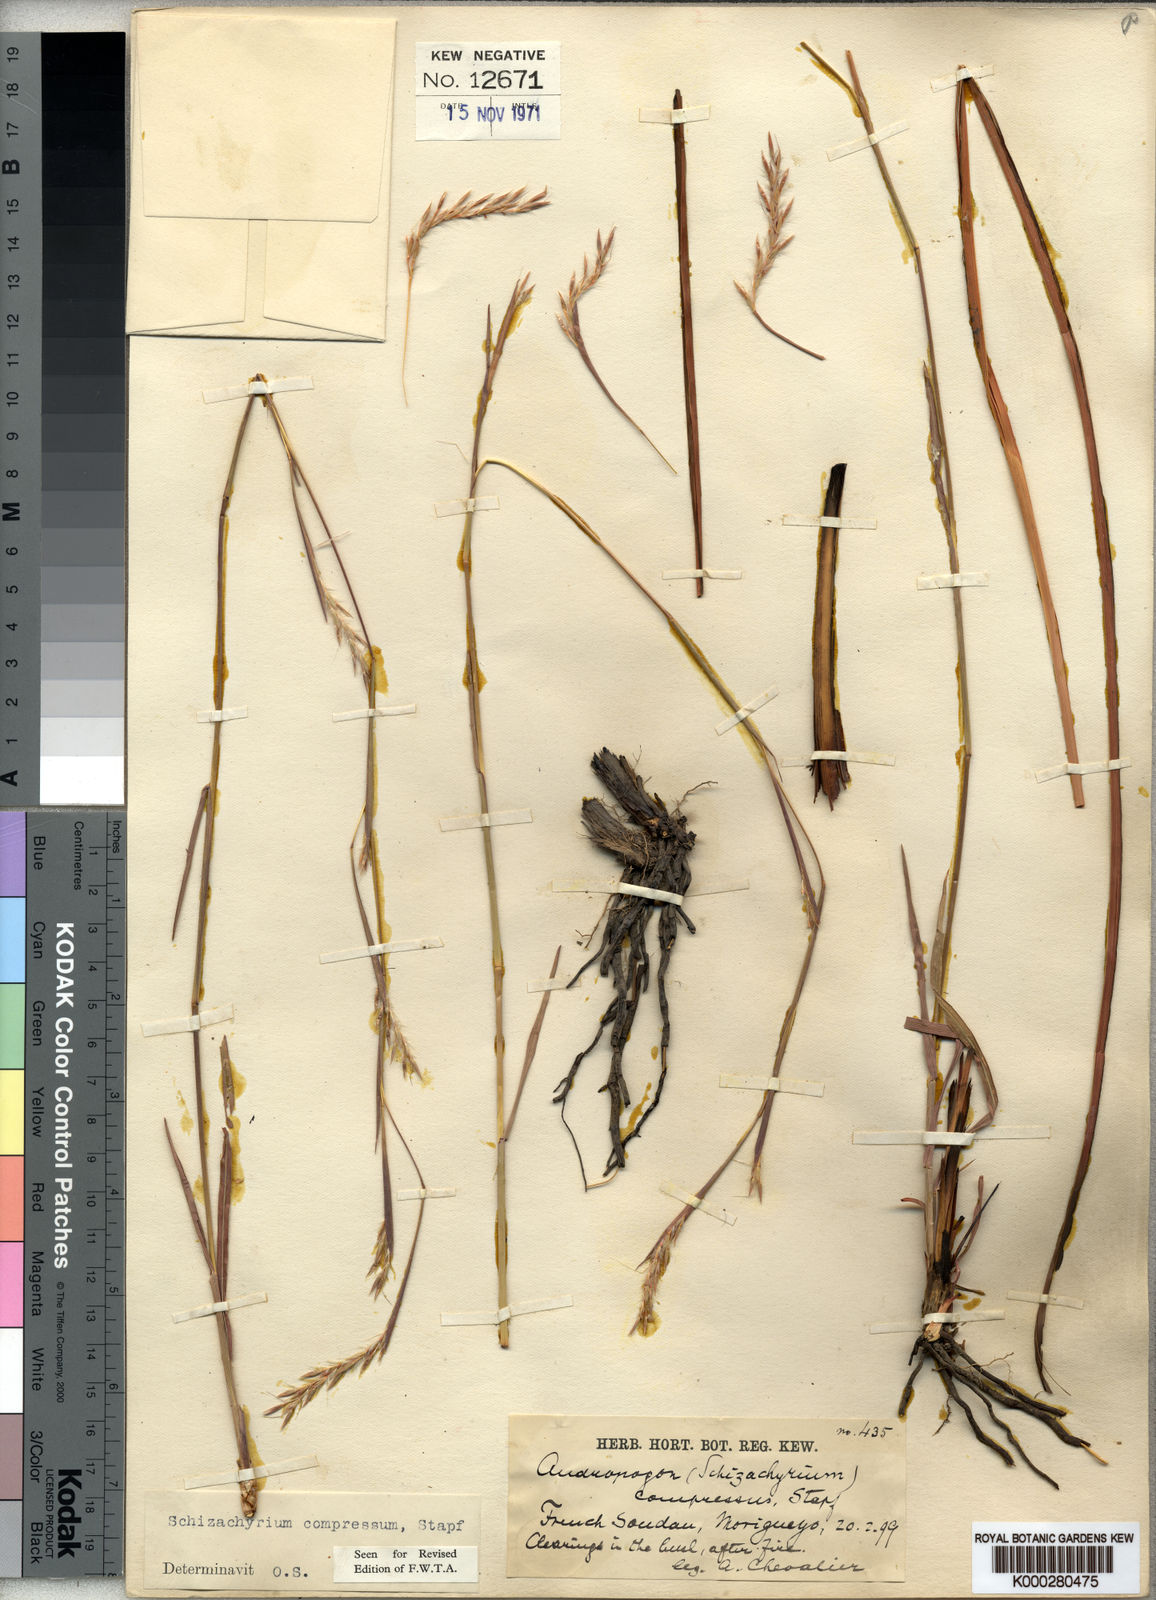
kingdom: Plantae
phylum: Tracheophyta
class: Liliopsida
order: Poales
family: Poaceae
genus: Andropogon
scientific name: Andropogon rupestris
